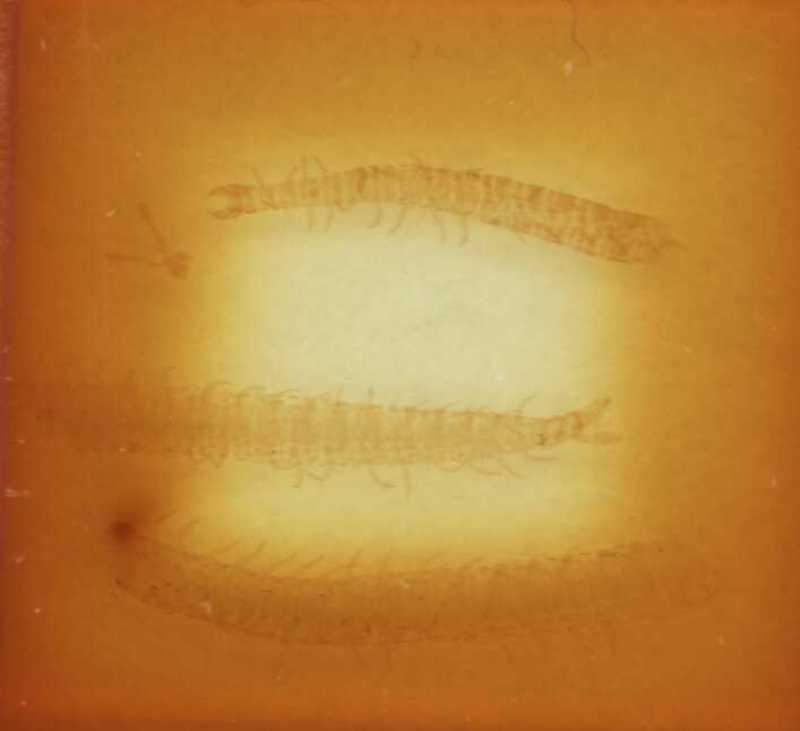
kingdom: Animalia
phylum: Arthropoda
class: Chilopoda
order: Geophilomorpha
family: Ballophilidae
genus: Ballophilus
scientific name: Ballophilus mauritianus
